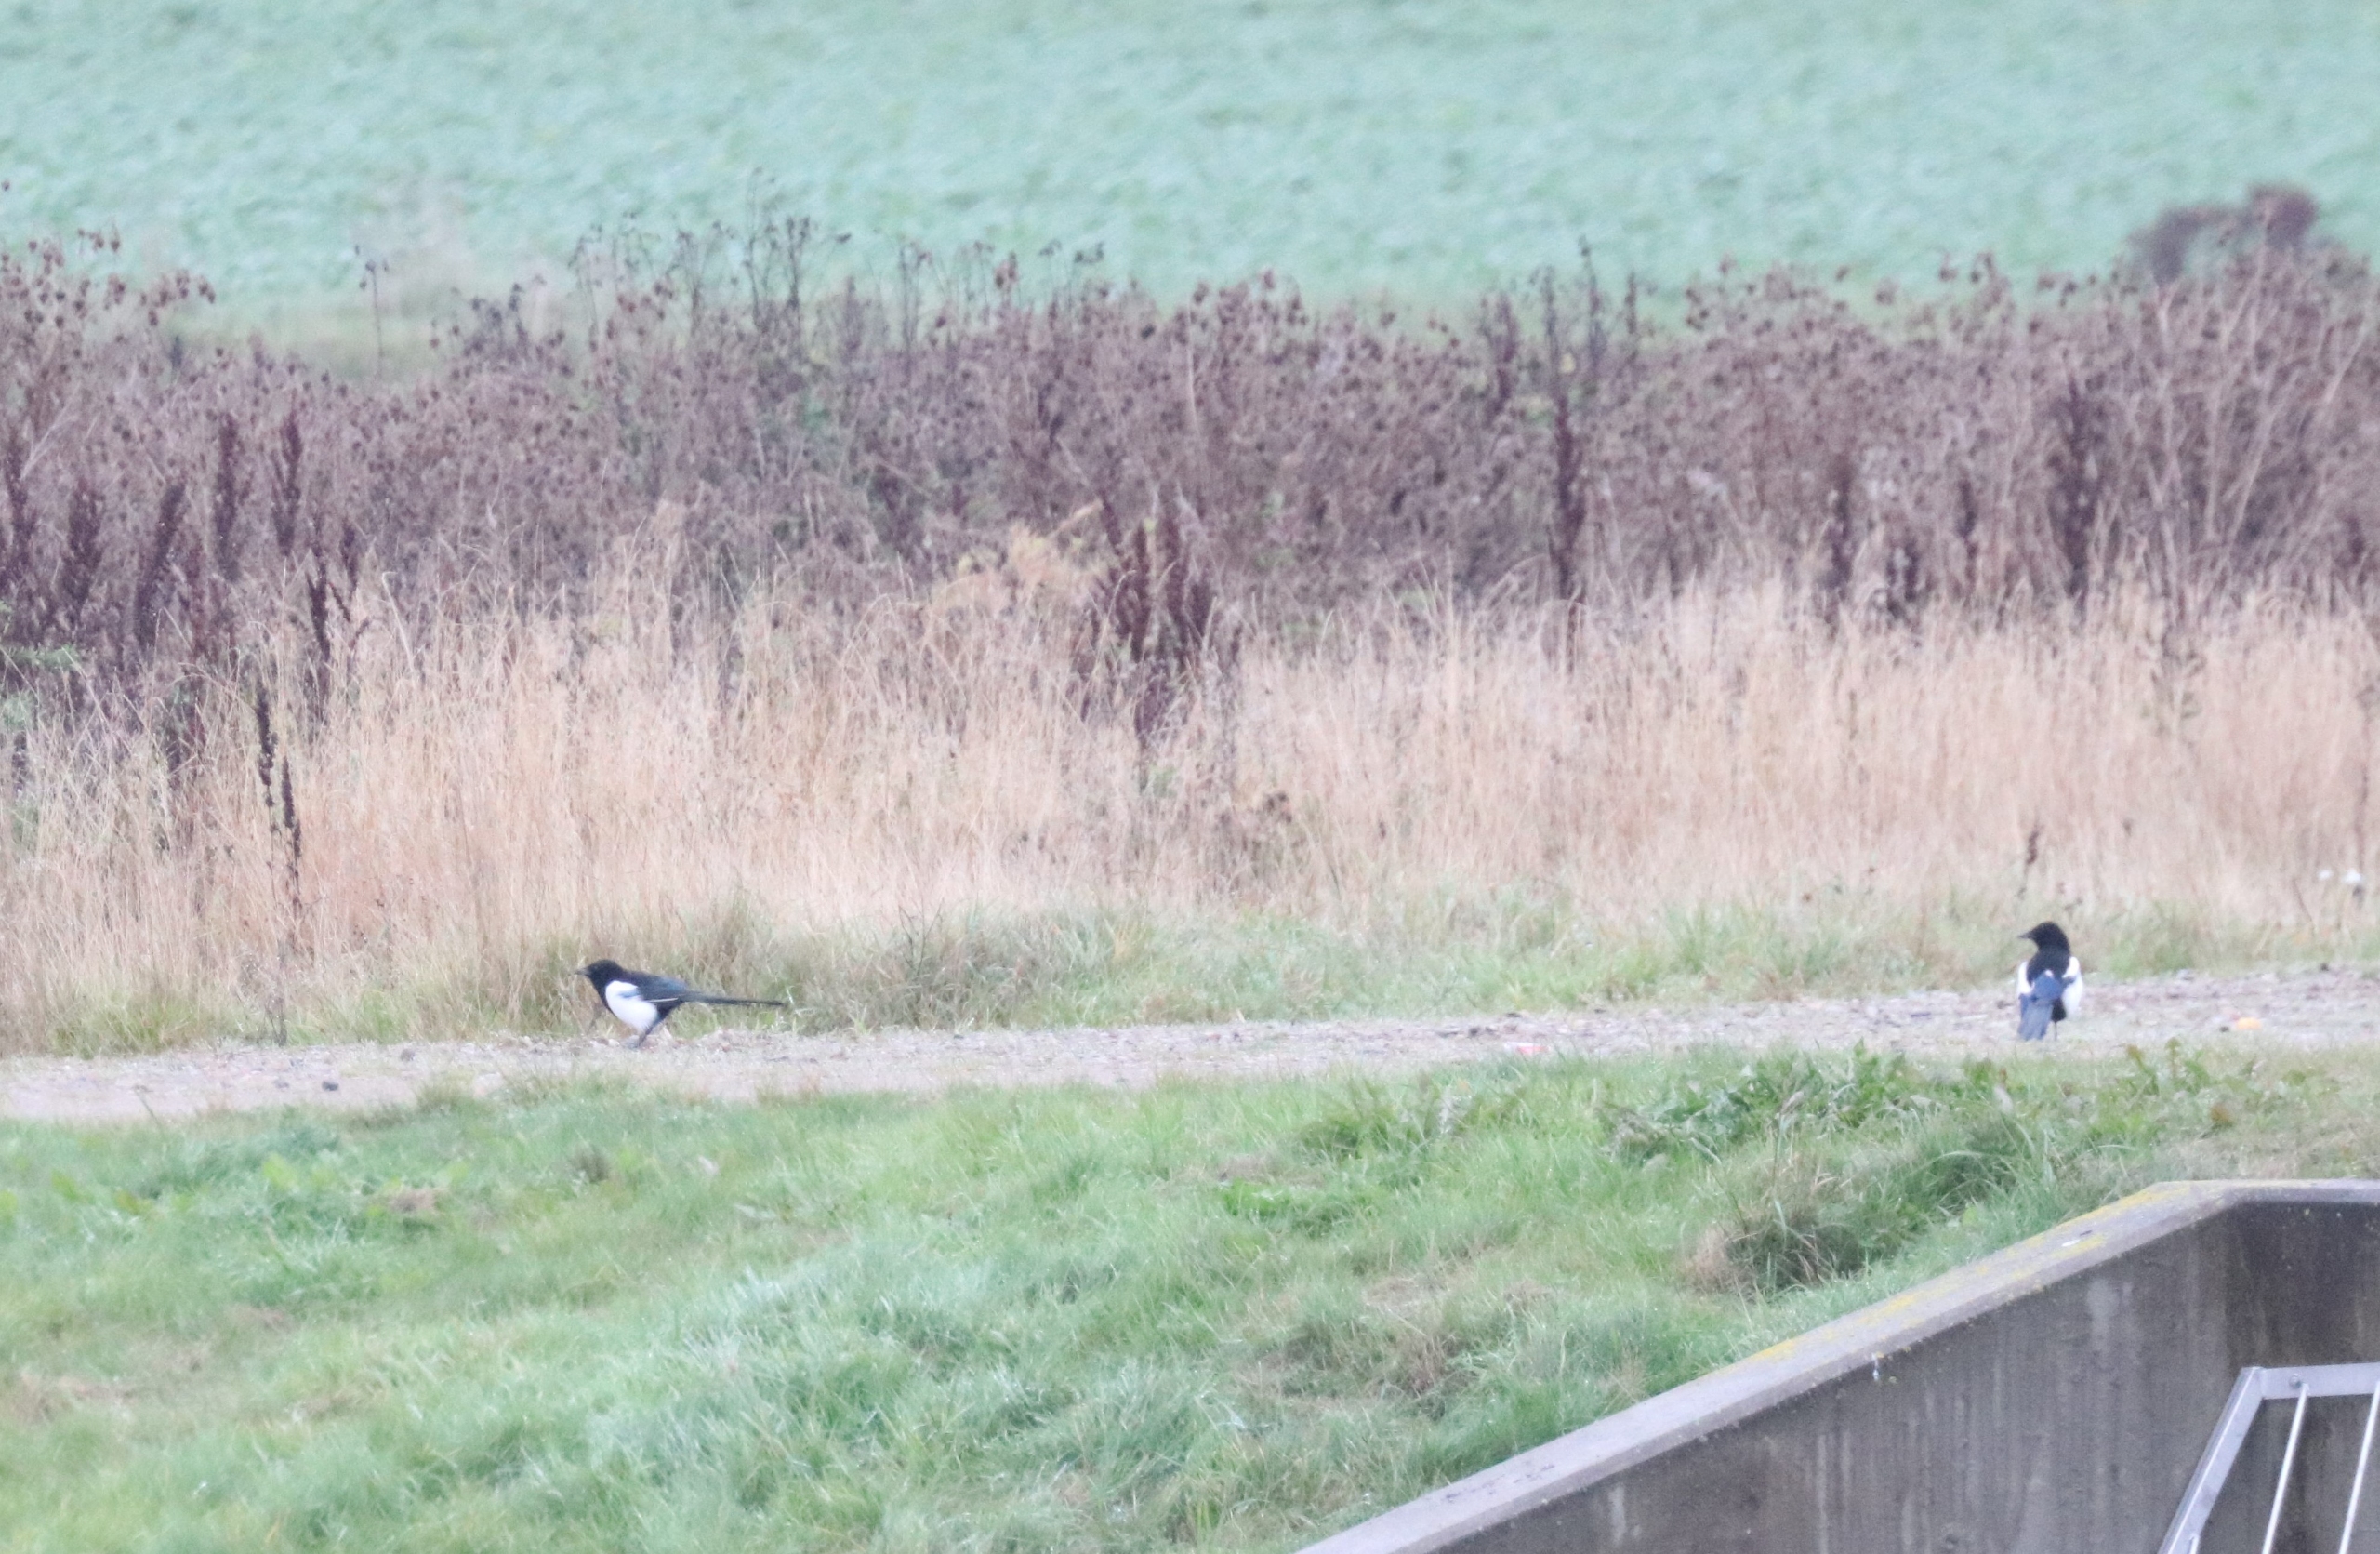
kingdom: Animalia
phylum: Chordata
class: Aves
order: Passeriformes
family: Corvidae
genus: Pica
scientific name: Pica pica
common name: Husskade
